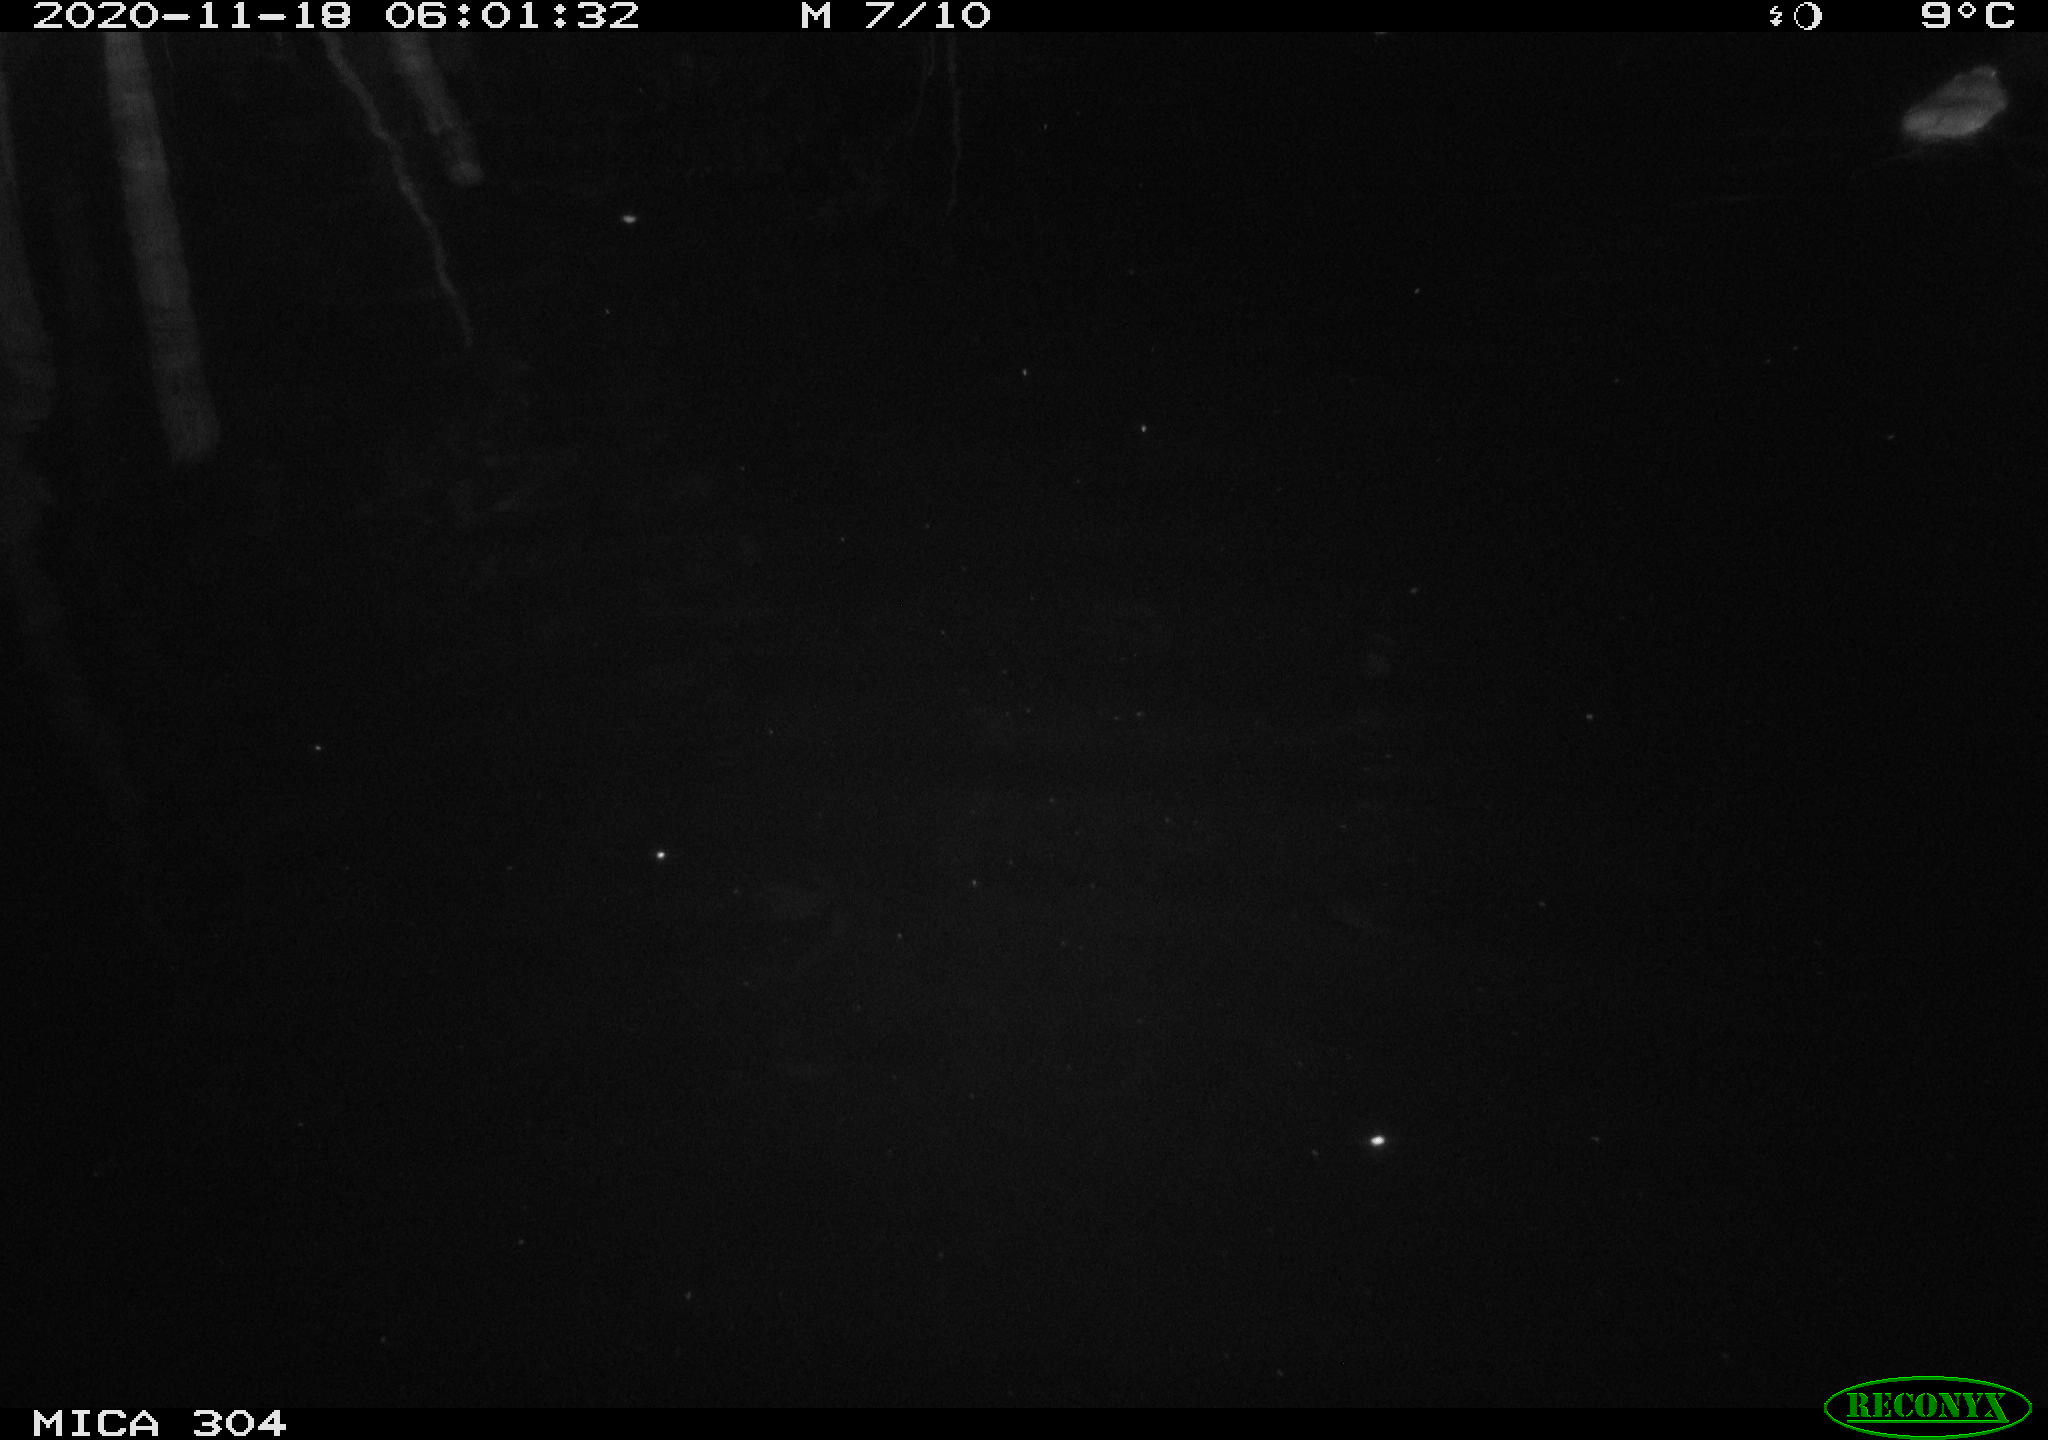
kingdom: Animalia
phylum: Chordata
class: Mammalia
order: Rodentia
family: Cricetidae
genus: Ondatra
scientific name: Ondatra zibethicus
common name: Muskrat
